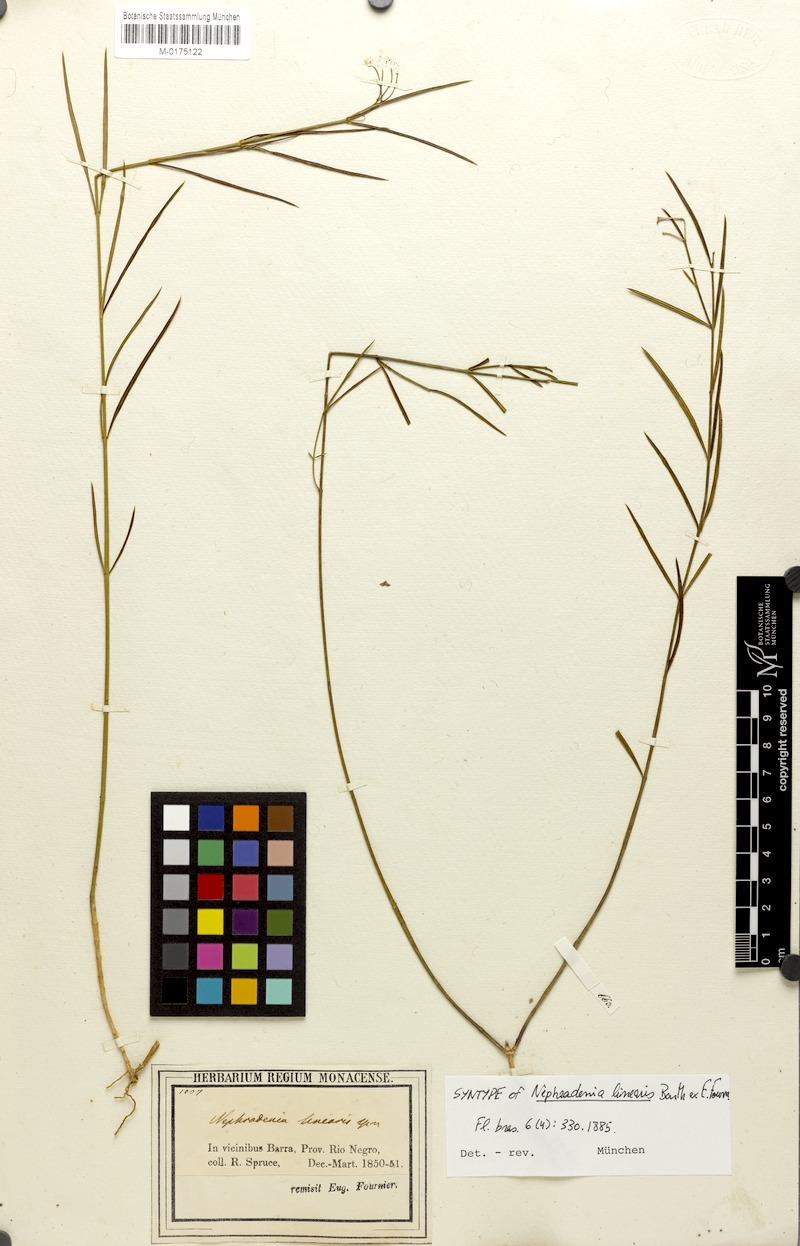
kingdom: Plantae
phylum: Tracheophyta
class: Magnoliopsida
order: Gentianales
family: Apocynaceae
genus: Blepharodon
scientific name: Blepharodon lineare
